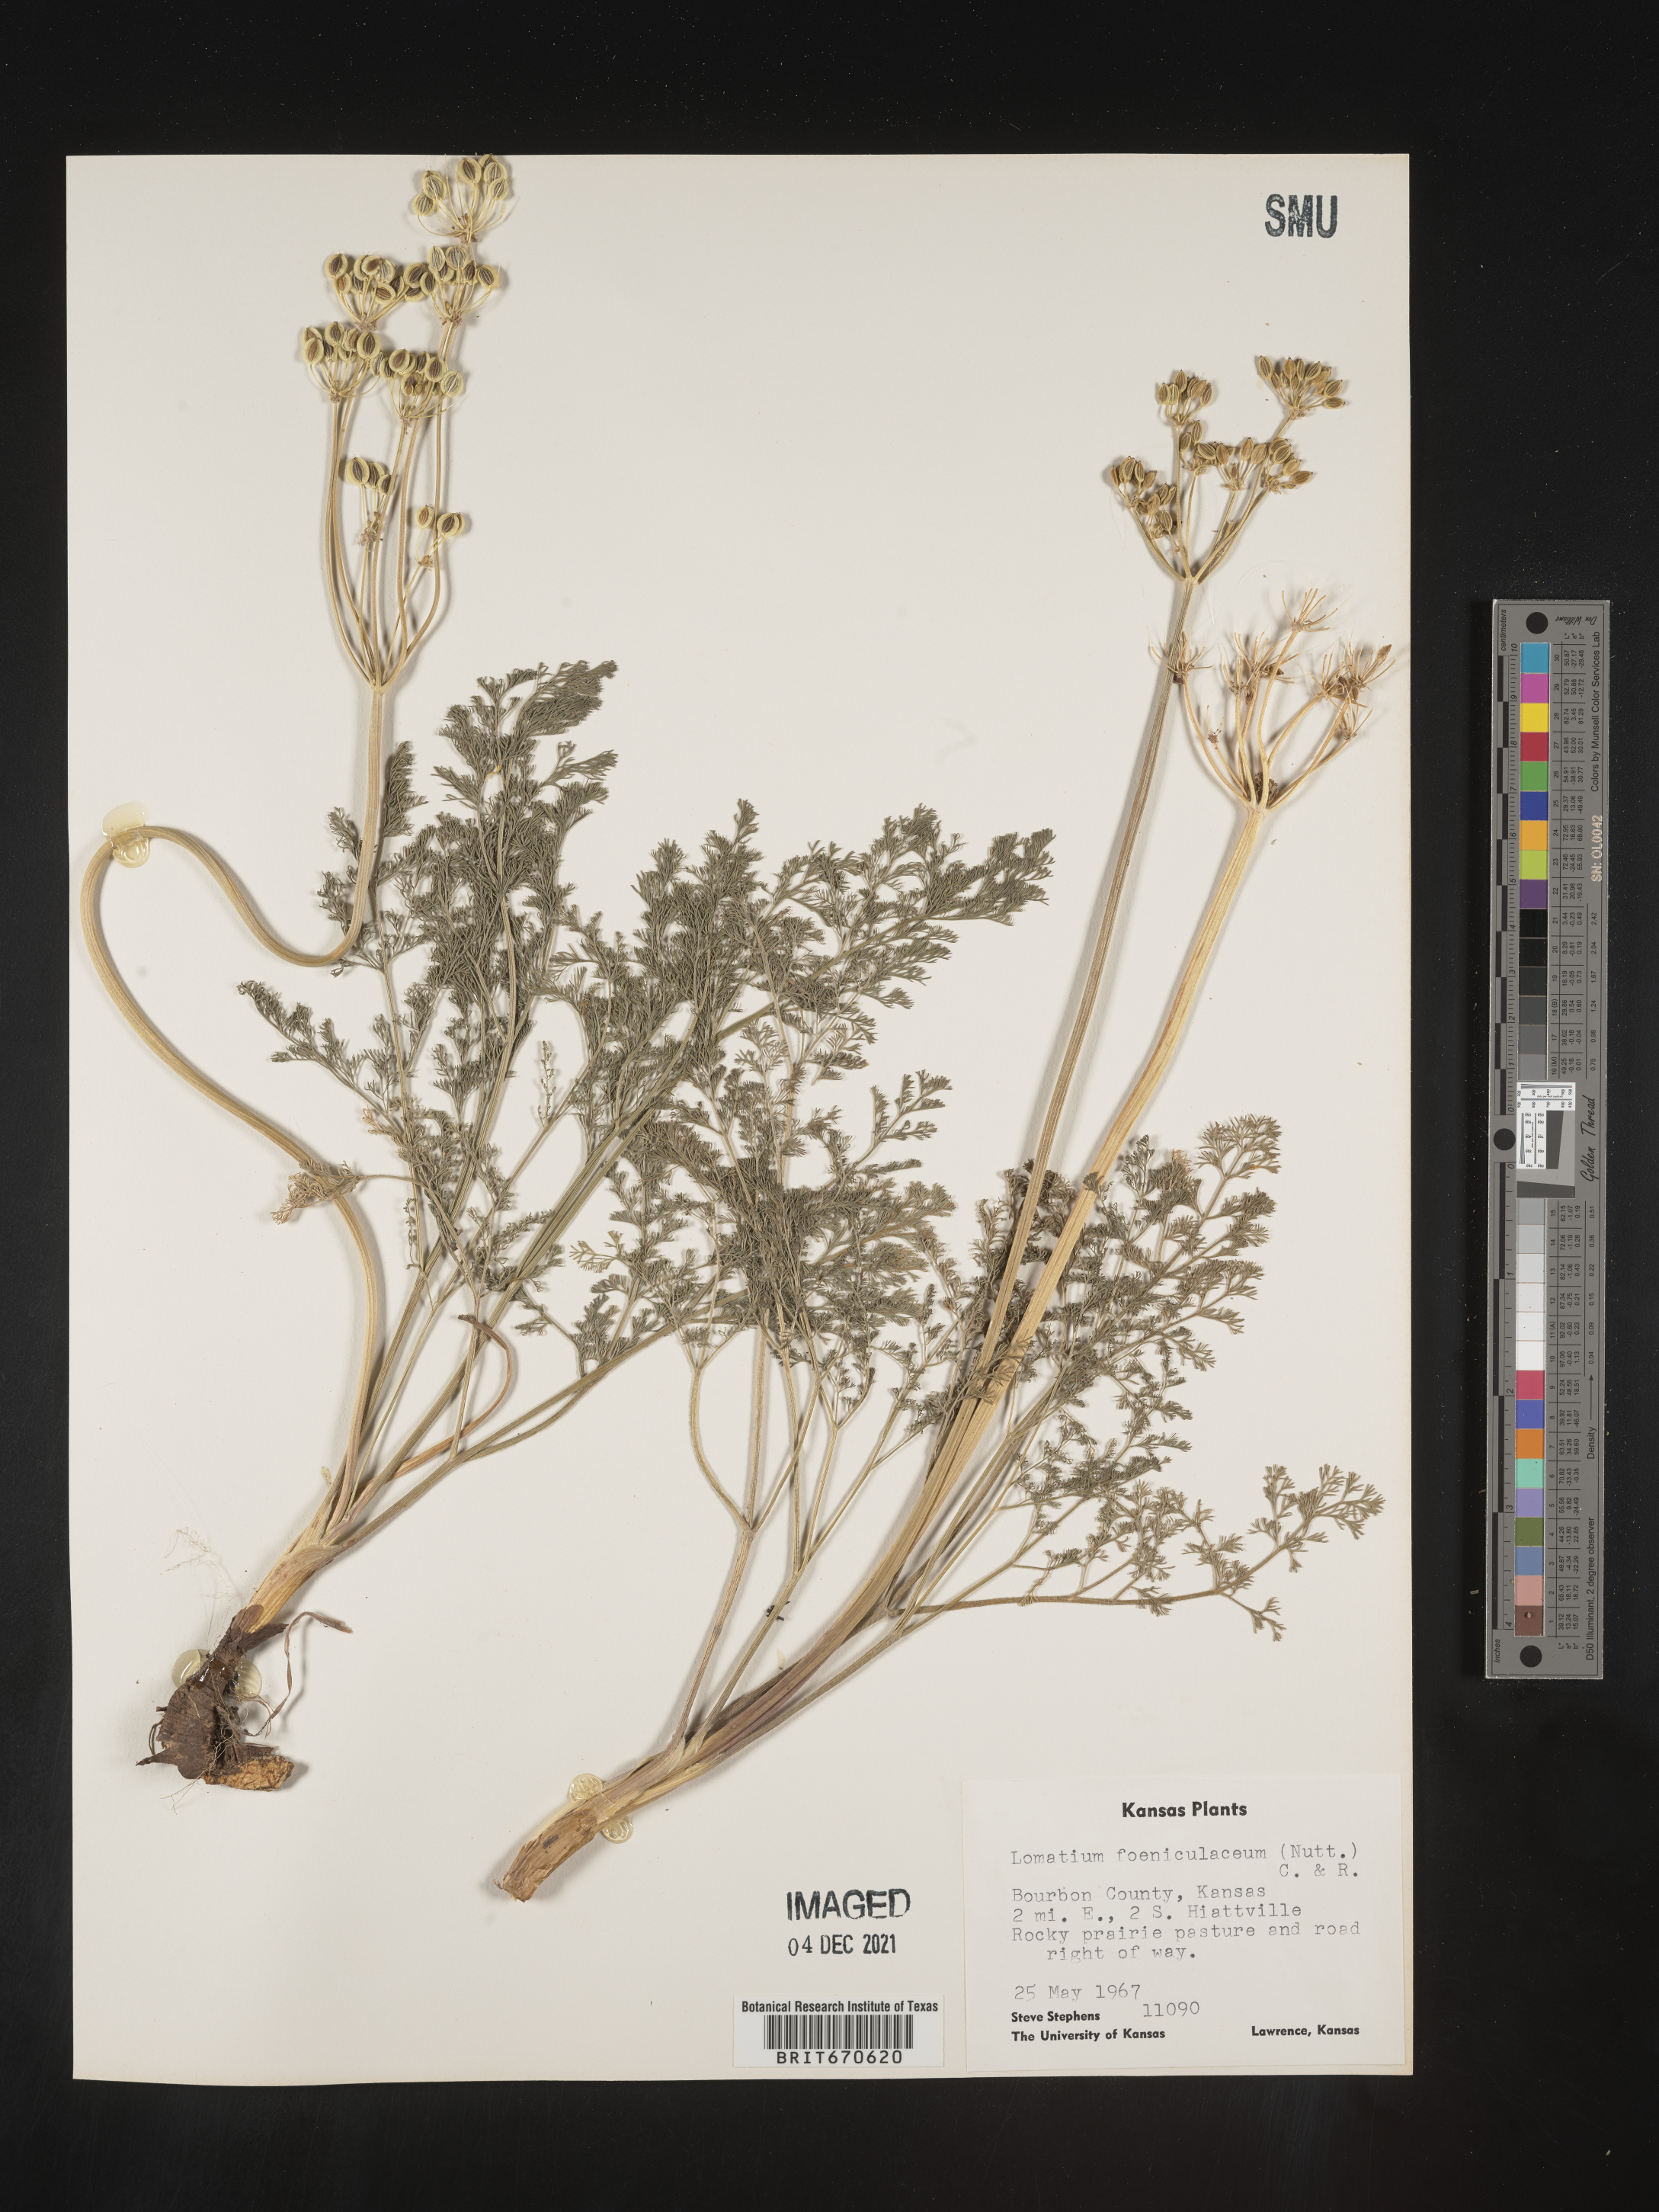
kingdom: Plantae
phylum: Tracheophyta
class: Magnoliopsida
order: Apiales
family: Apiaceae
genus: Lomatium
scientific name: Lomatium foeniculaceum
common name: Desert-parsley
